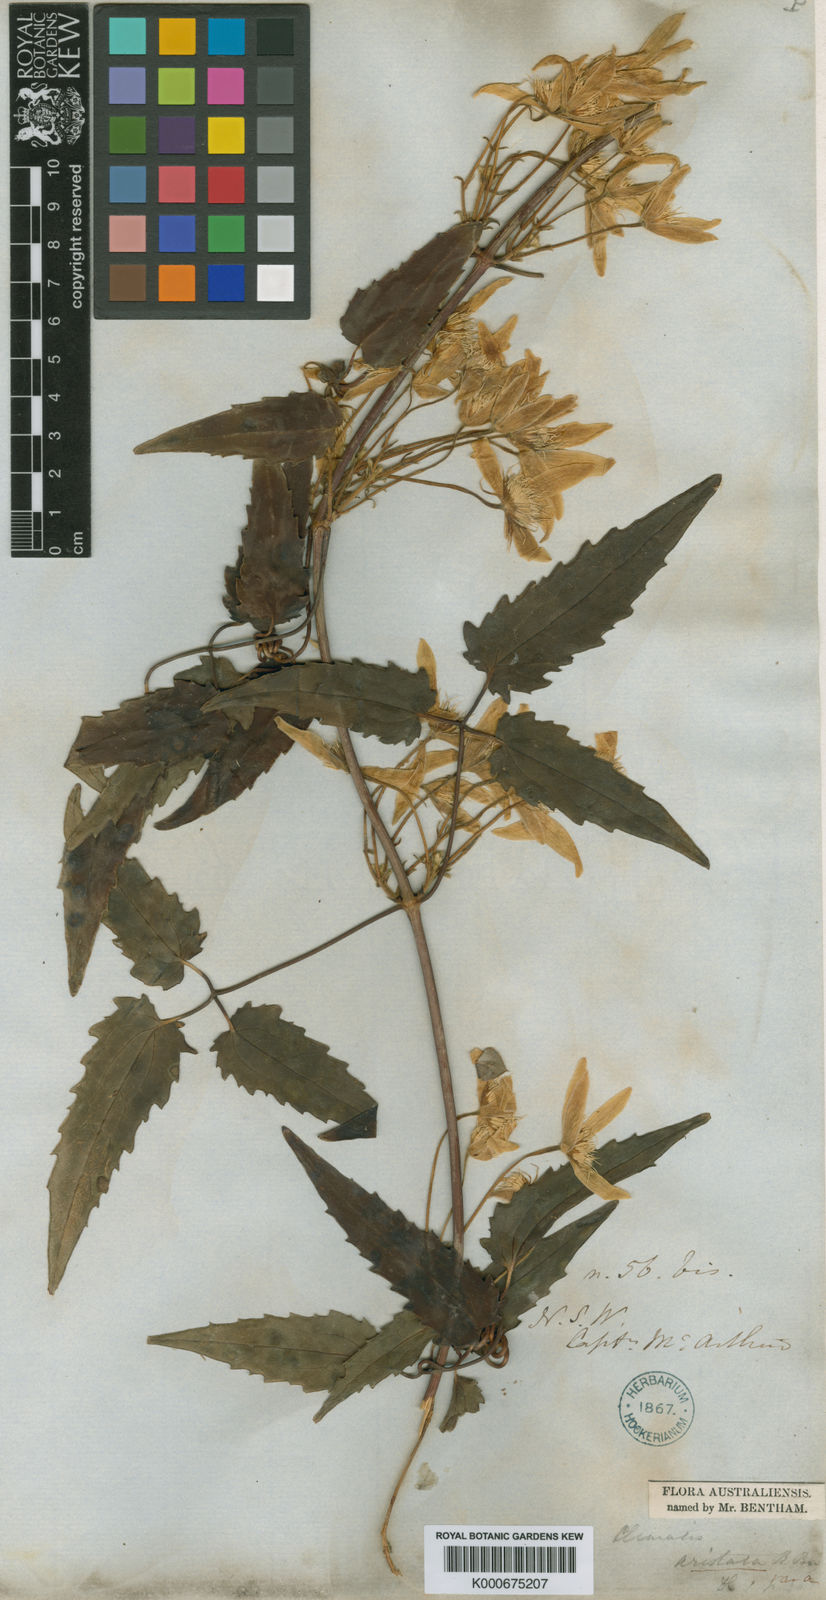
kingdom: Plantae
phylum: Tracheophyta
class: Magnoliopsida
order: Ranunculales
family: Ranunculaceae
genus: Clematis
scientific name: Clematis aristata
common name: Mountain clematis
